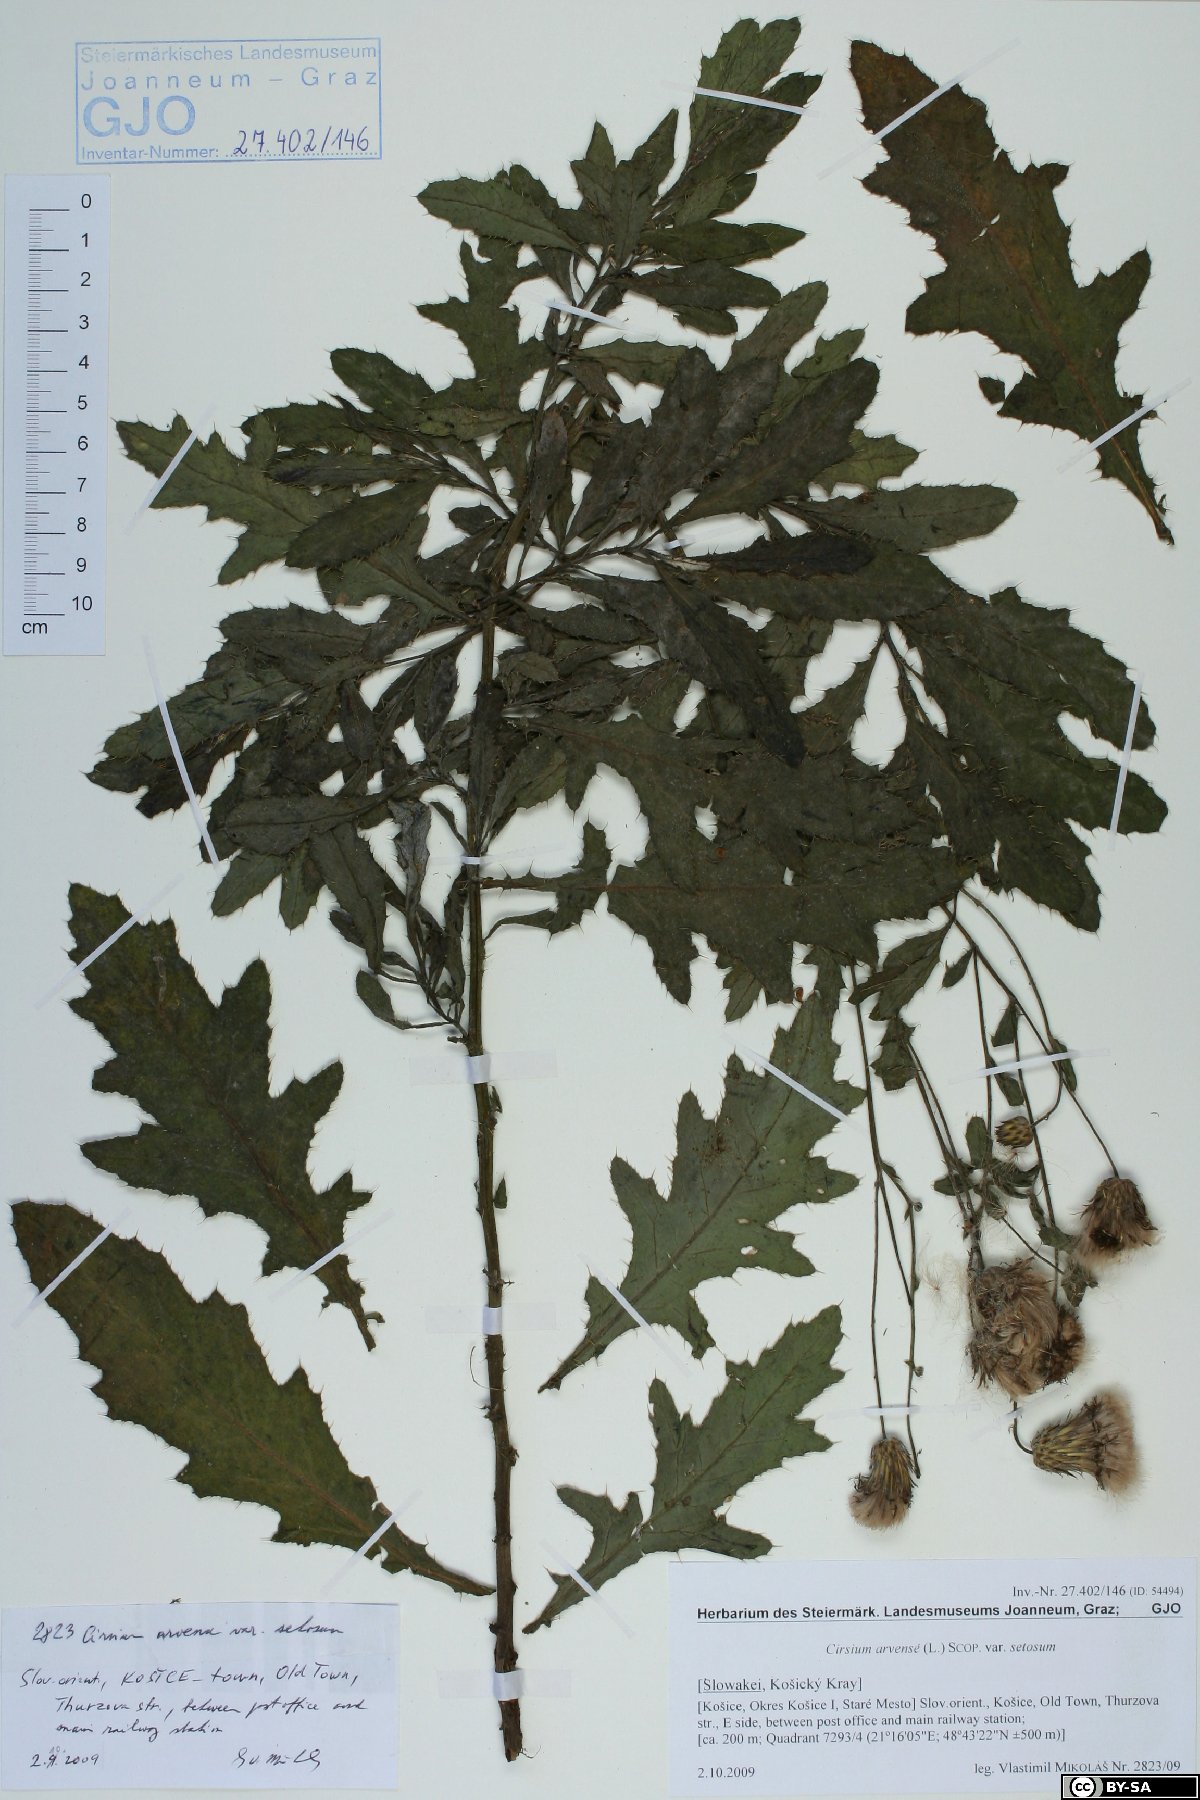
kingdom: Plantae
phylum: Tracheophyta
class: Magnoliopsida
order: Asterales
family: Asteraceae
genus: Cirsium
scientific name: Cirsium arvense
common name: Creeping thistle
